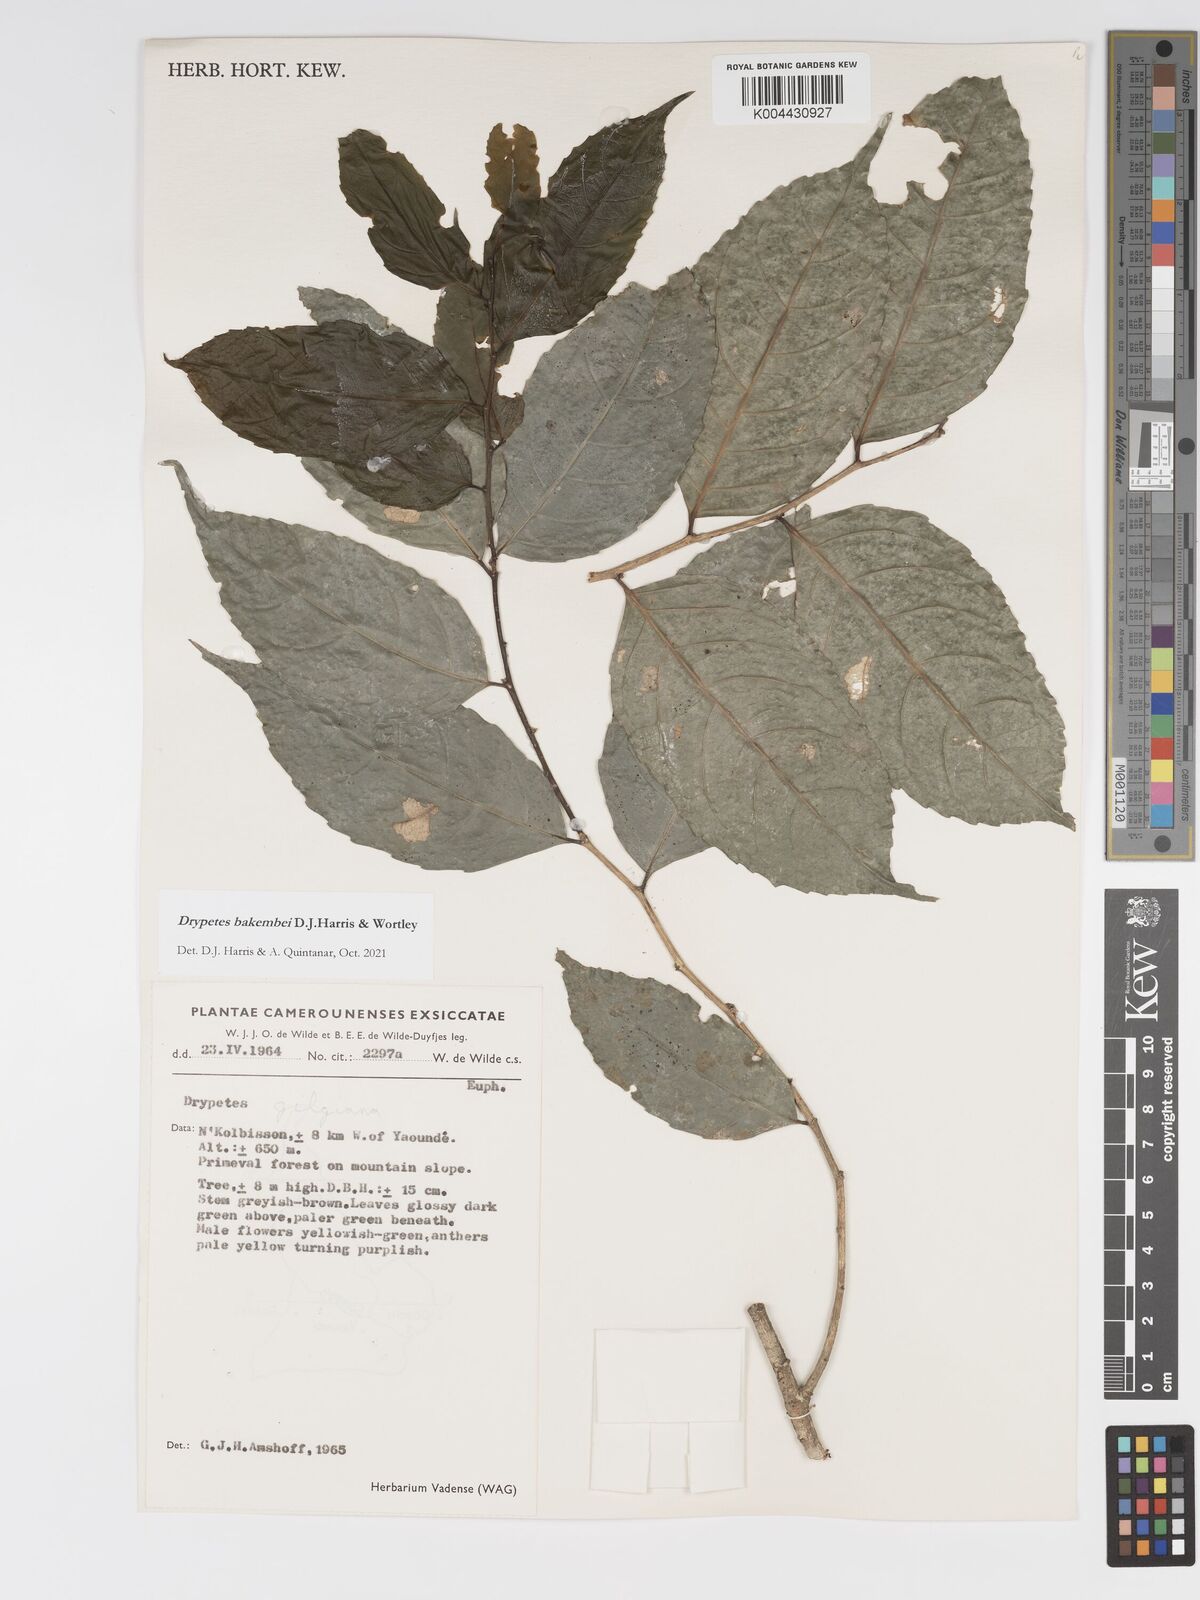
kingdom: Plantae
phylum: Tracheophyta
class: Magnoliopsida
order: Malpighiales
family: Putranjivaceae
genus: Drypetes
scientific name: Drypetes bakembei
